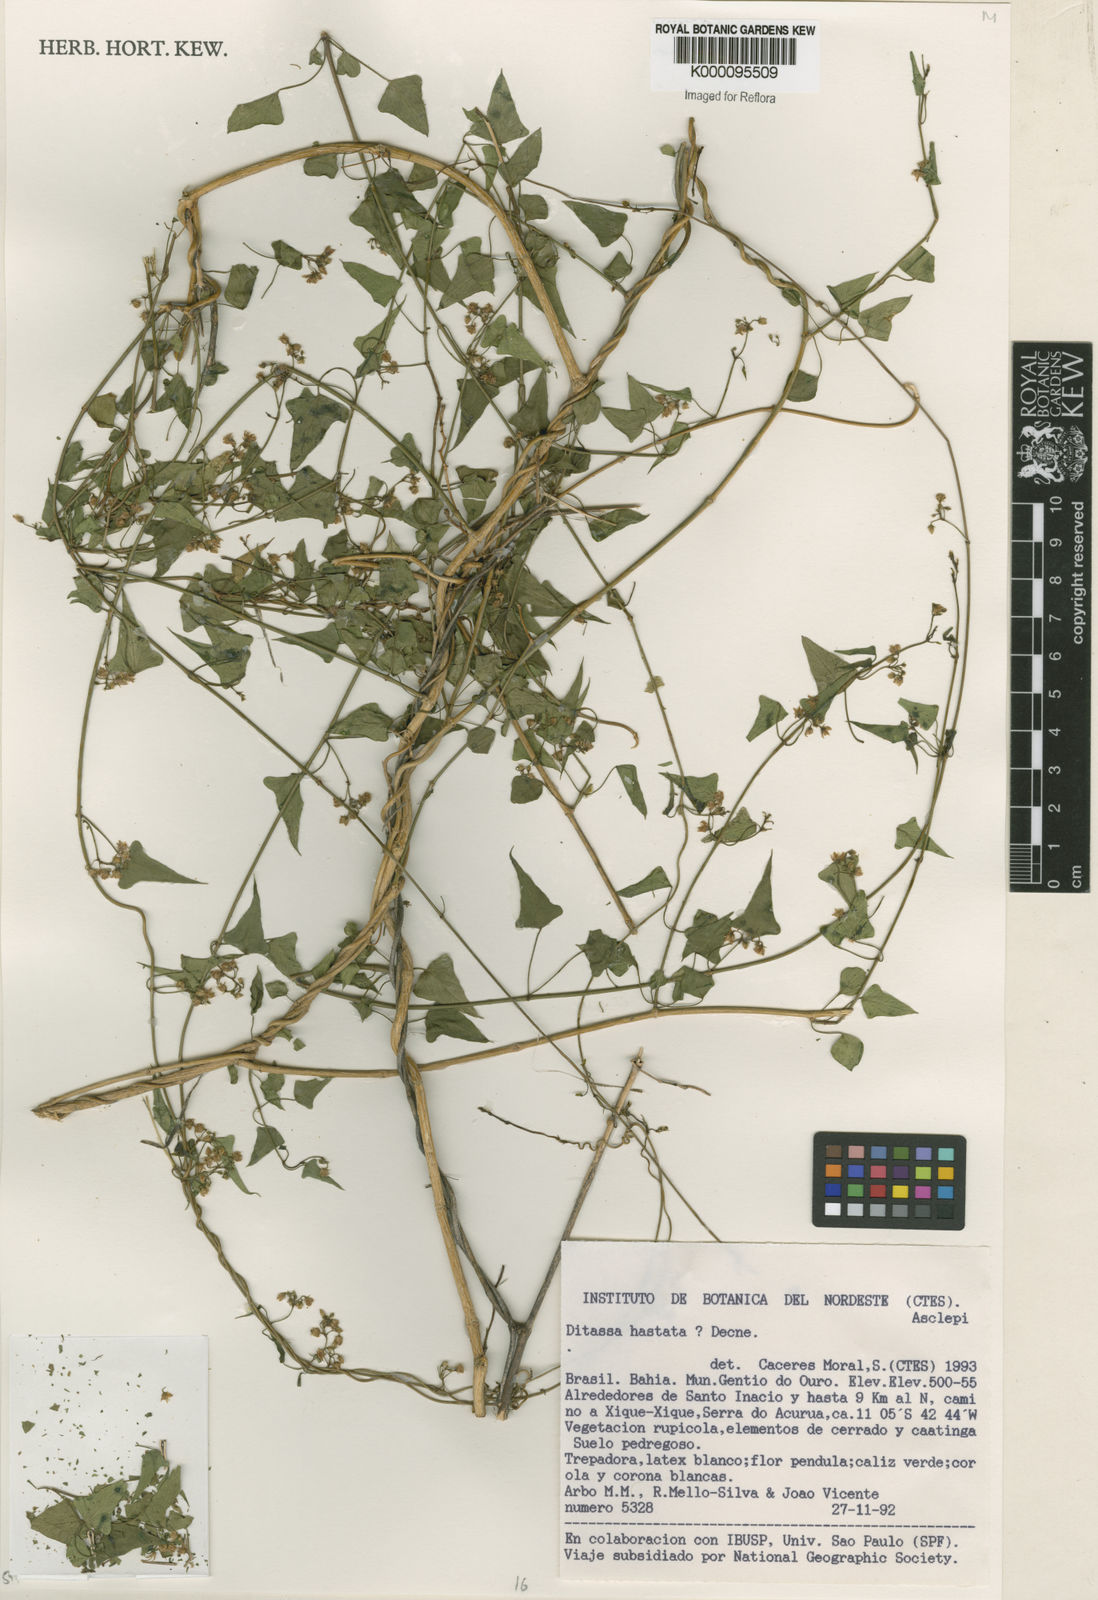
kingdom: Plantae
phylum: Tracheophyta
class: Magnoliopsida
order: Gentianales
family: Apocynaceae
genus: Ditassa
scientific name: Ditassa hastata
